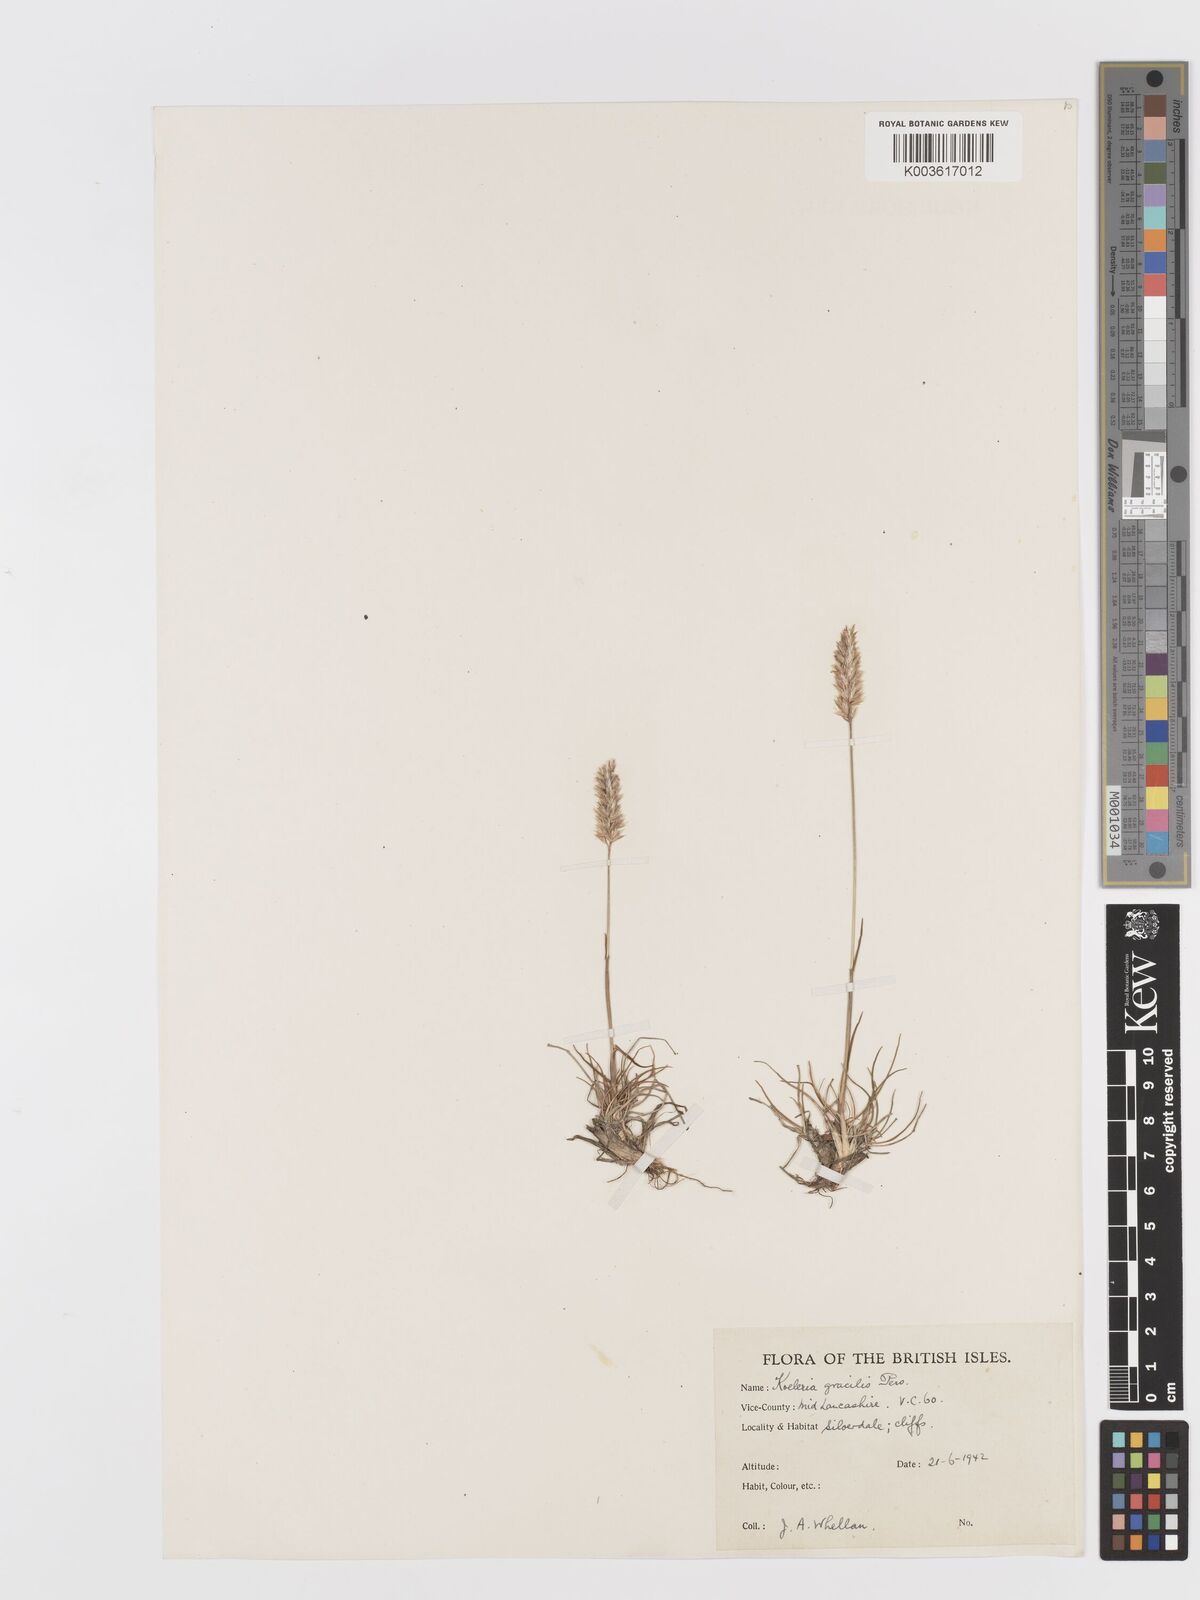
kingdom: Plantae
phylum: Tracheophyta
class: Liliopsida
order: Poales
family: Poaceae
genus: Koeleria
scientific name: Koeleria macrantha
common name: Crested hair-grass
